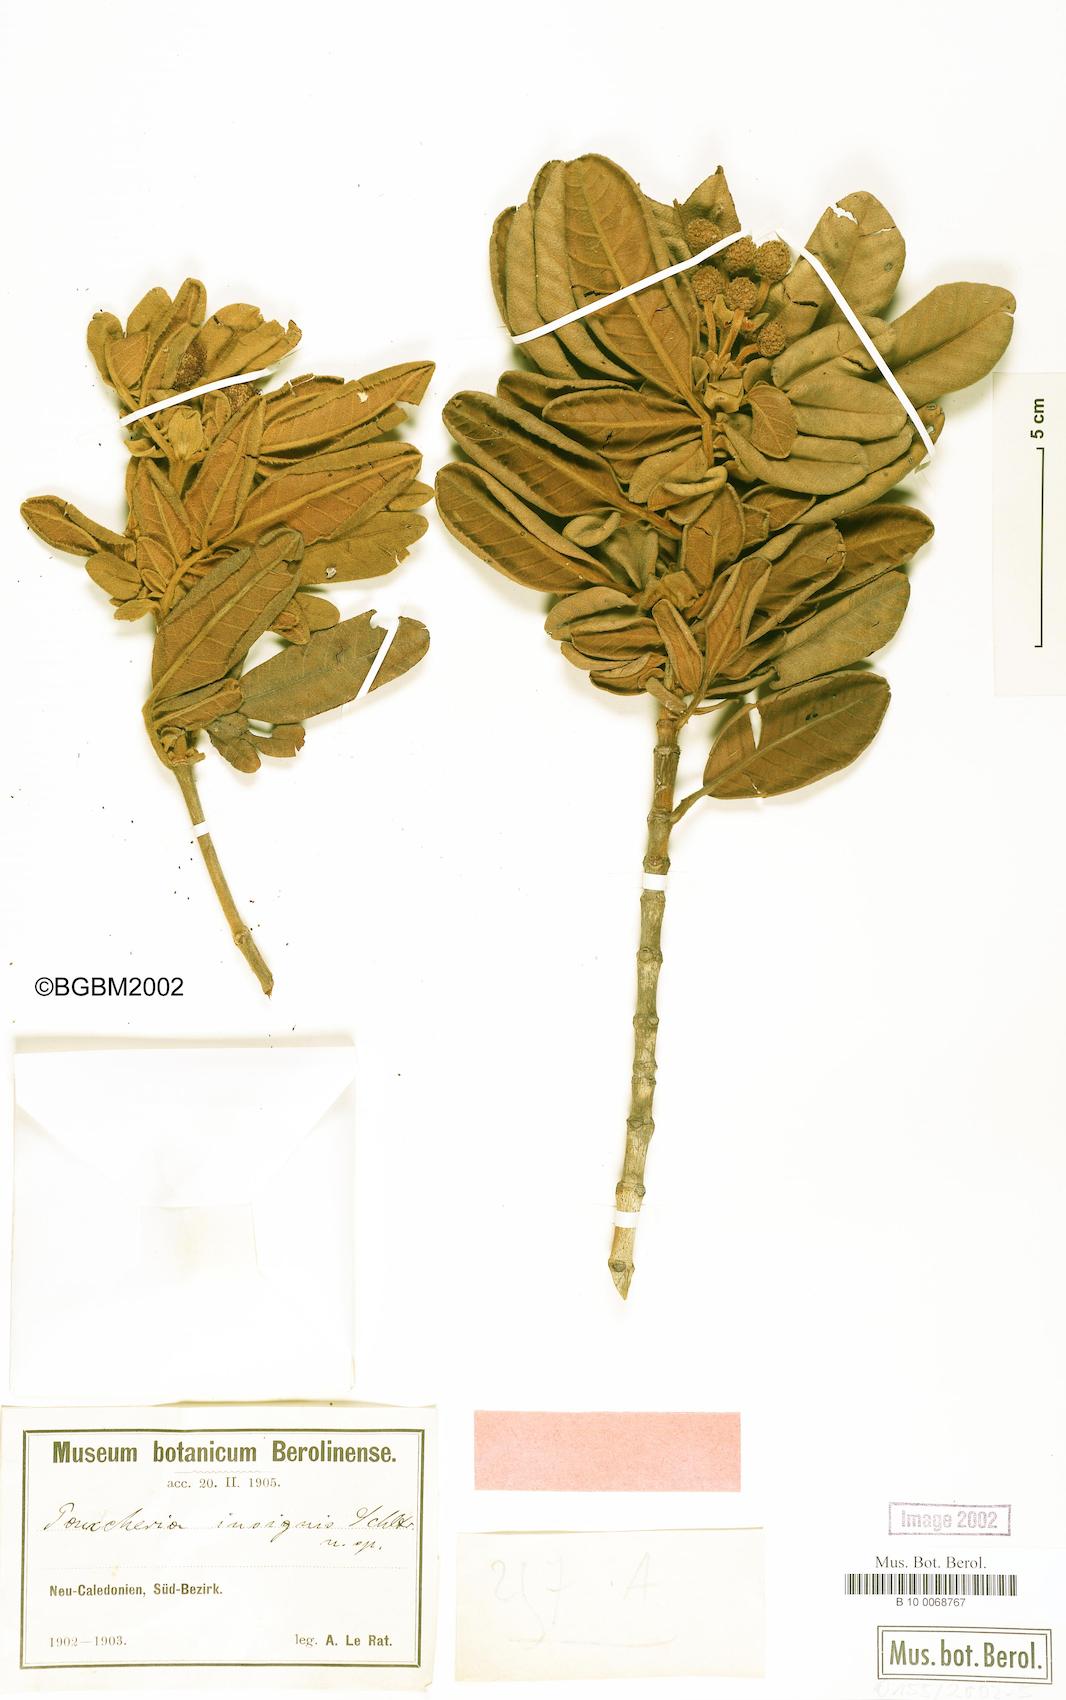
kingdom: Plantae
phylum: Tracheophyta
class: Magnoliopsida
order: Oxalidales
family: Cunoniaceae
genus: Pancheria
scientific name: Pancheria hirsuta
